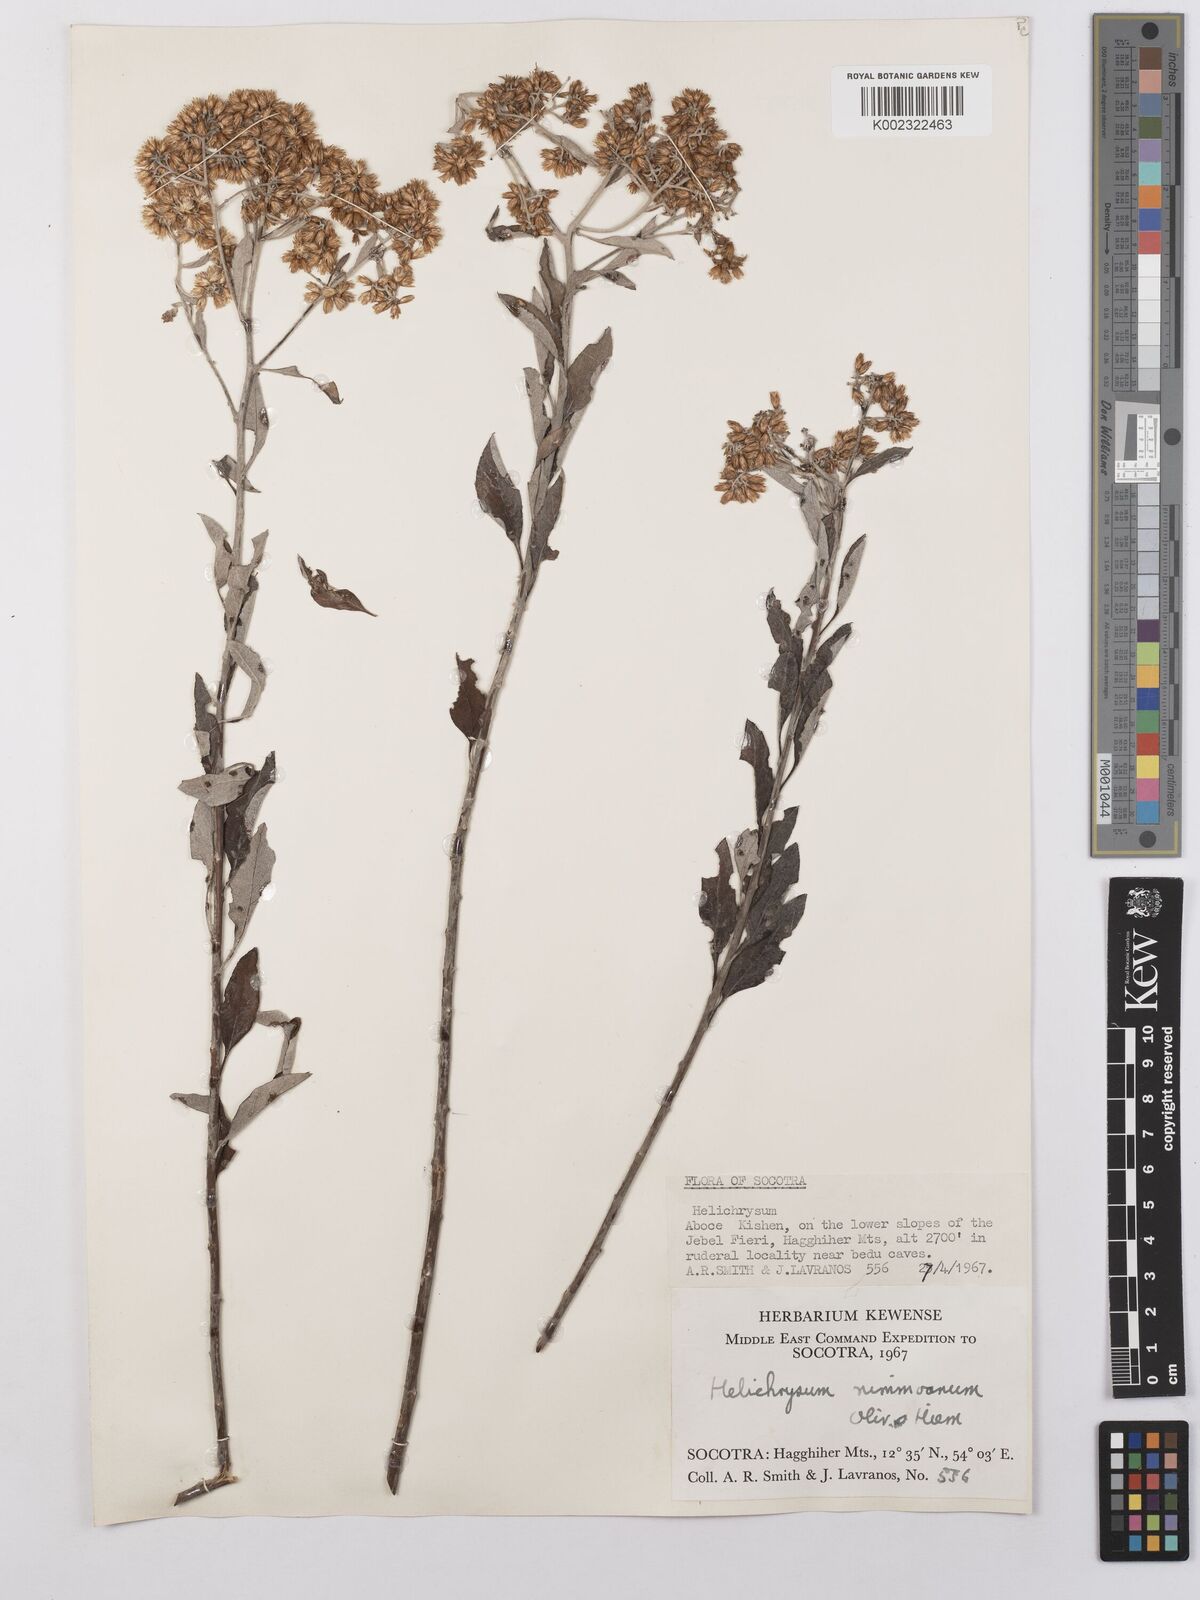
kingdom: Plantae
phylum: Tracheophyta
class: Magnoliopsida
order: Asterales
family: Asteraceae
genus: Libinhania
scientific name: Libinhania nimmoana
